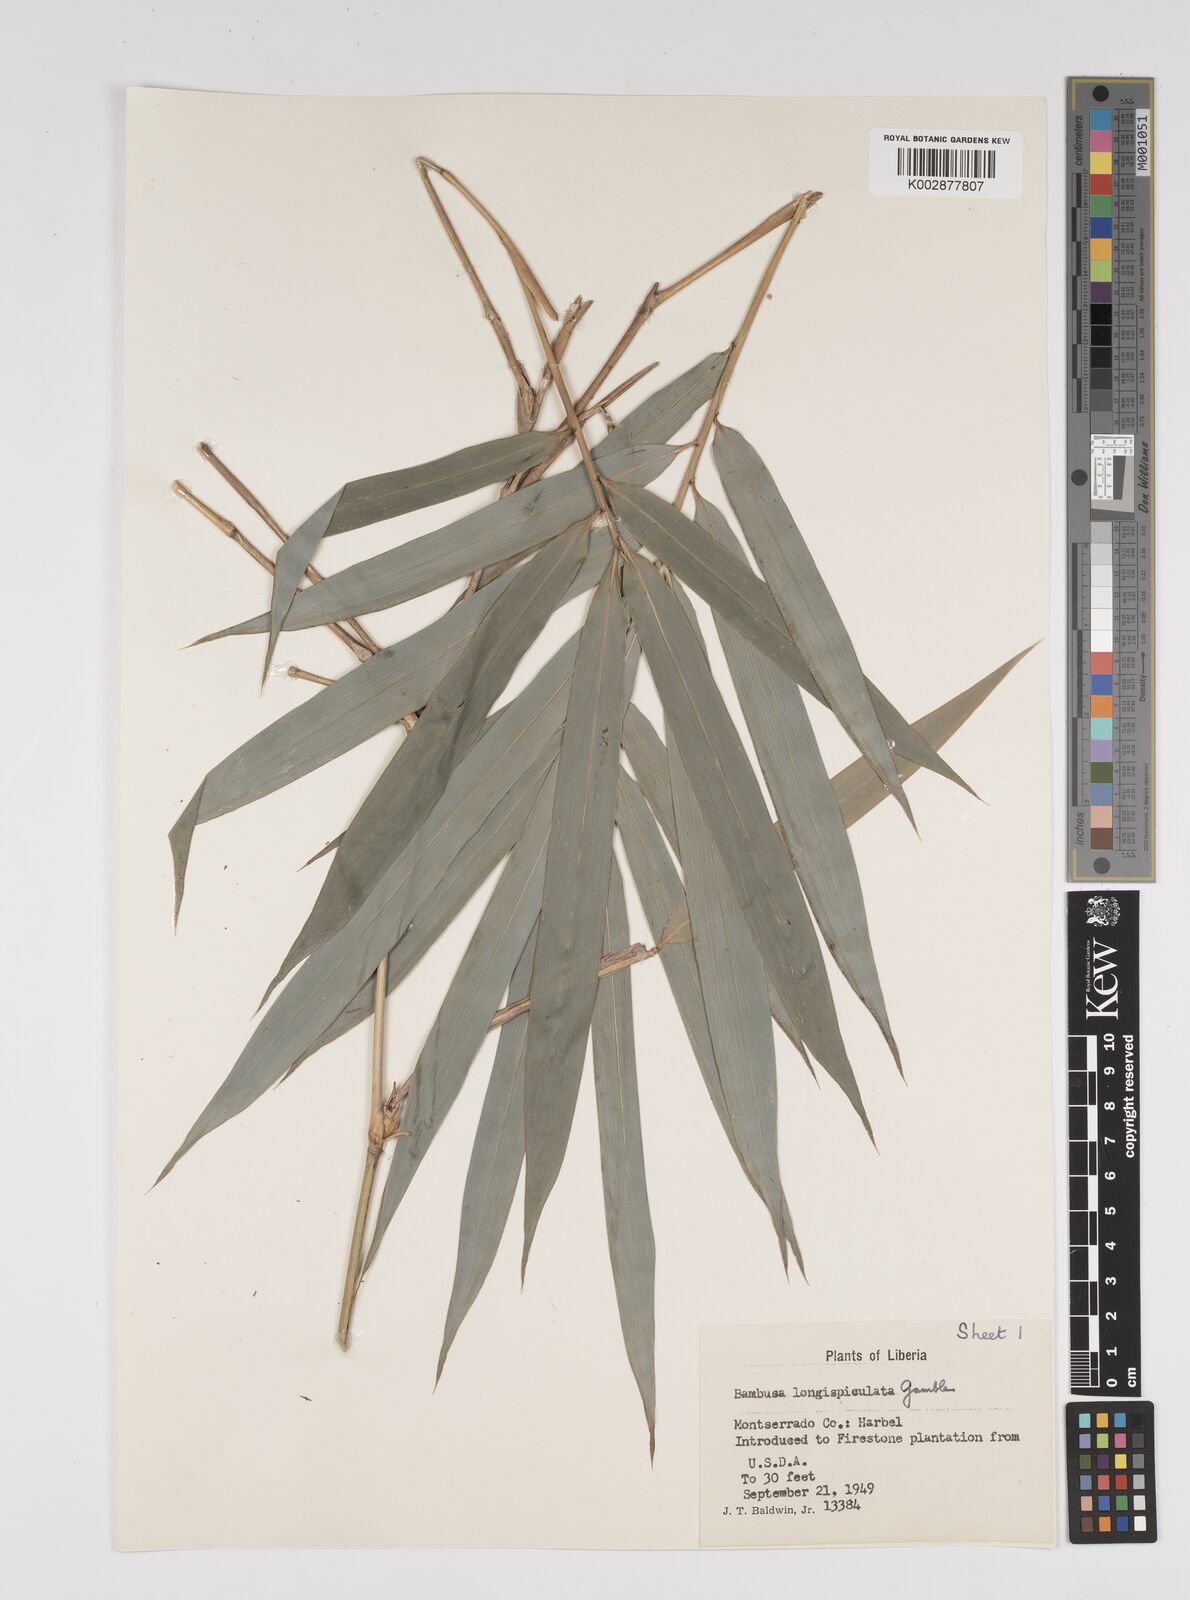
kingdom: Plantae
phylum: Tracheophyta
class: Liliopsida
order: Poales
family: Poaceae
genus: Bambusa
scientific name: Bambusa longispiculata
